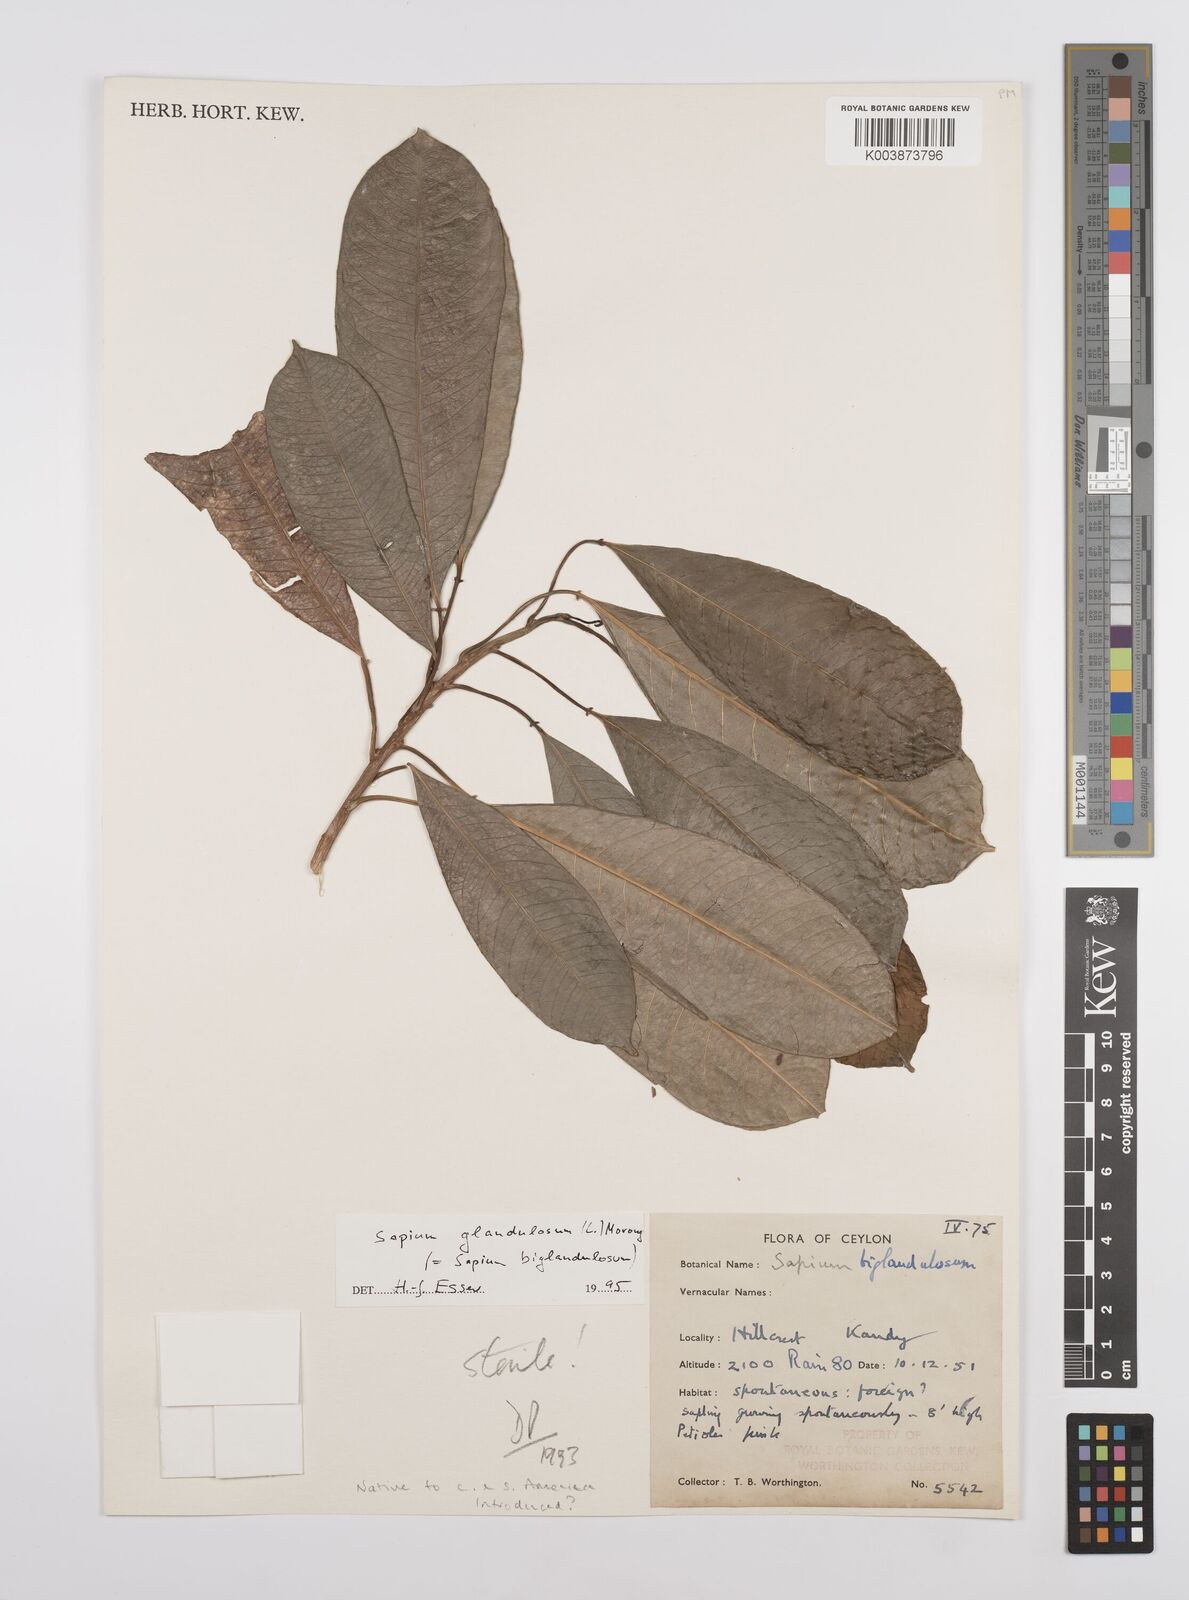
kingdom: Plantae
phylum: Tracheophyta
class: Magnoliopsida
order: Malpighiales
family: Euphorbiaceae
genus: Sapium
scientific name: Sapium glandulosum
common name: Milktree
